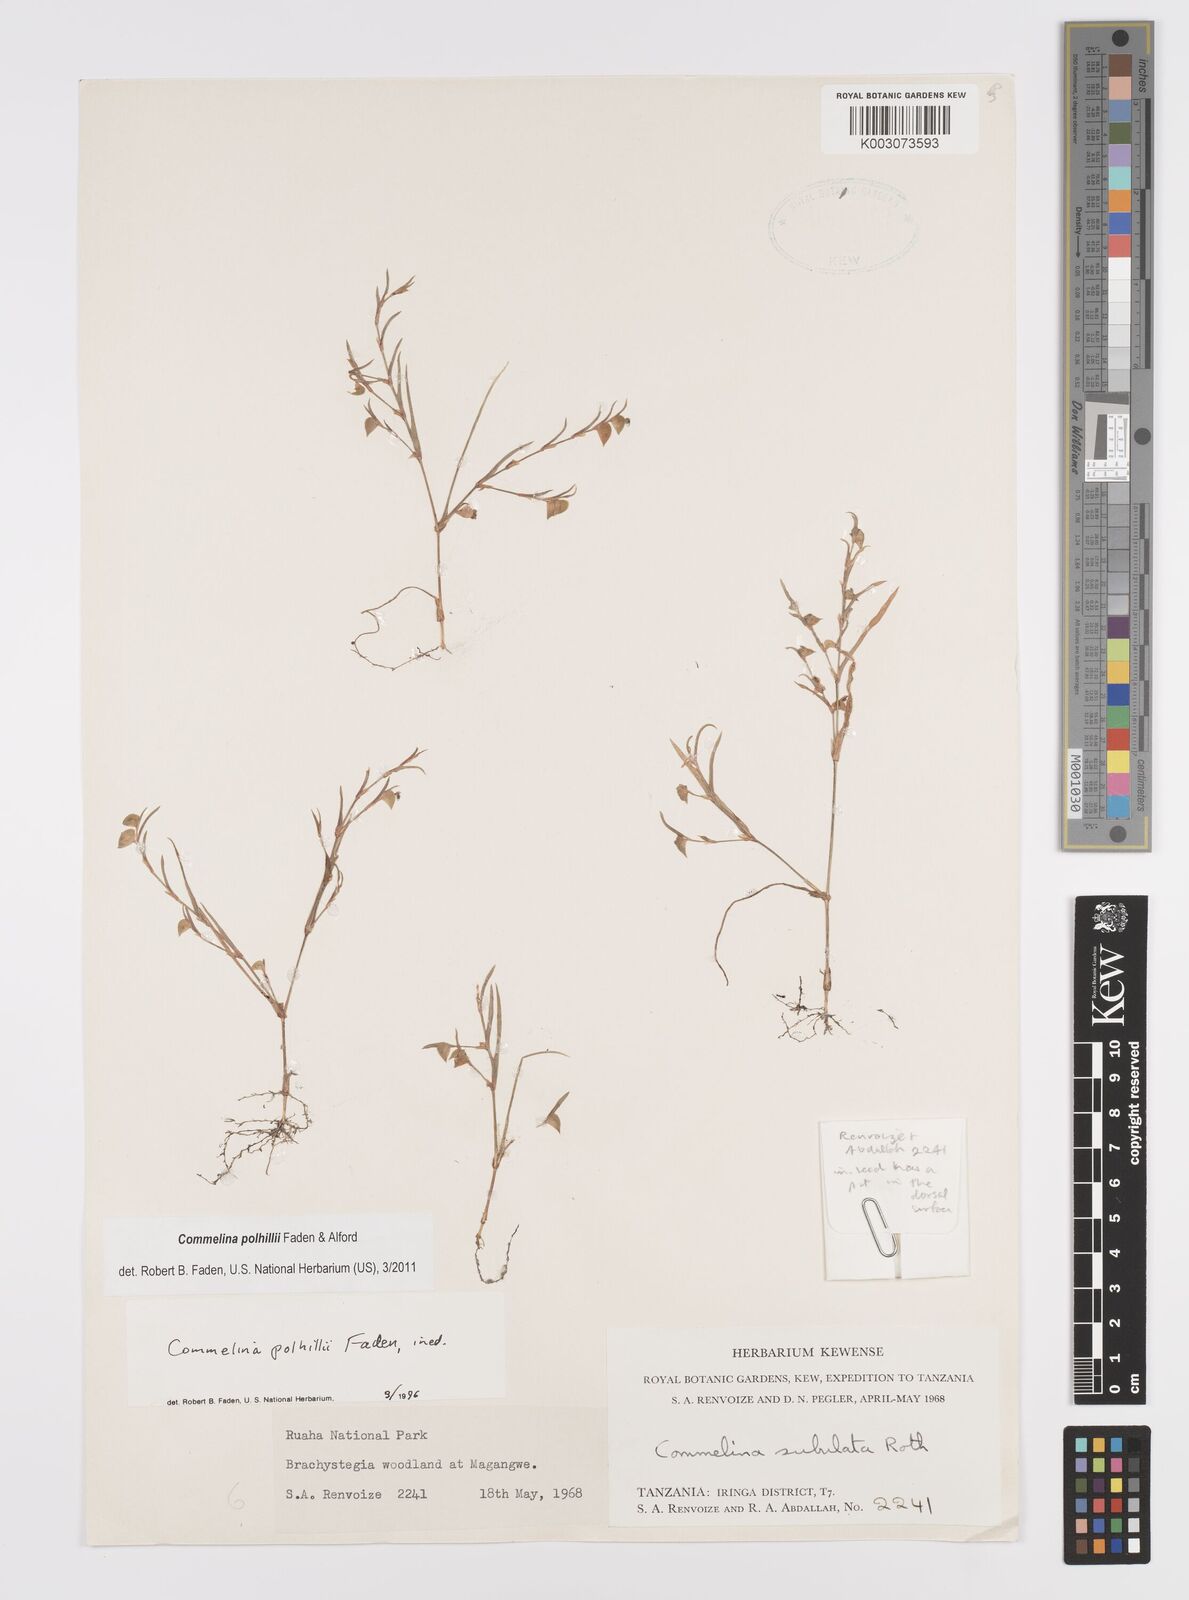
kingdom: Plantae
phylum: Tracheophyta
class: Liliopsida
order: Commelinales
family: Commelinaceae
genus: Commelina
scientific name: Commelina polhillii
